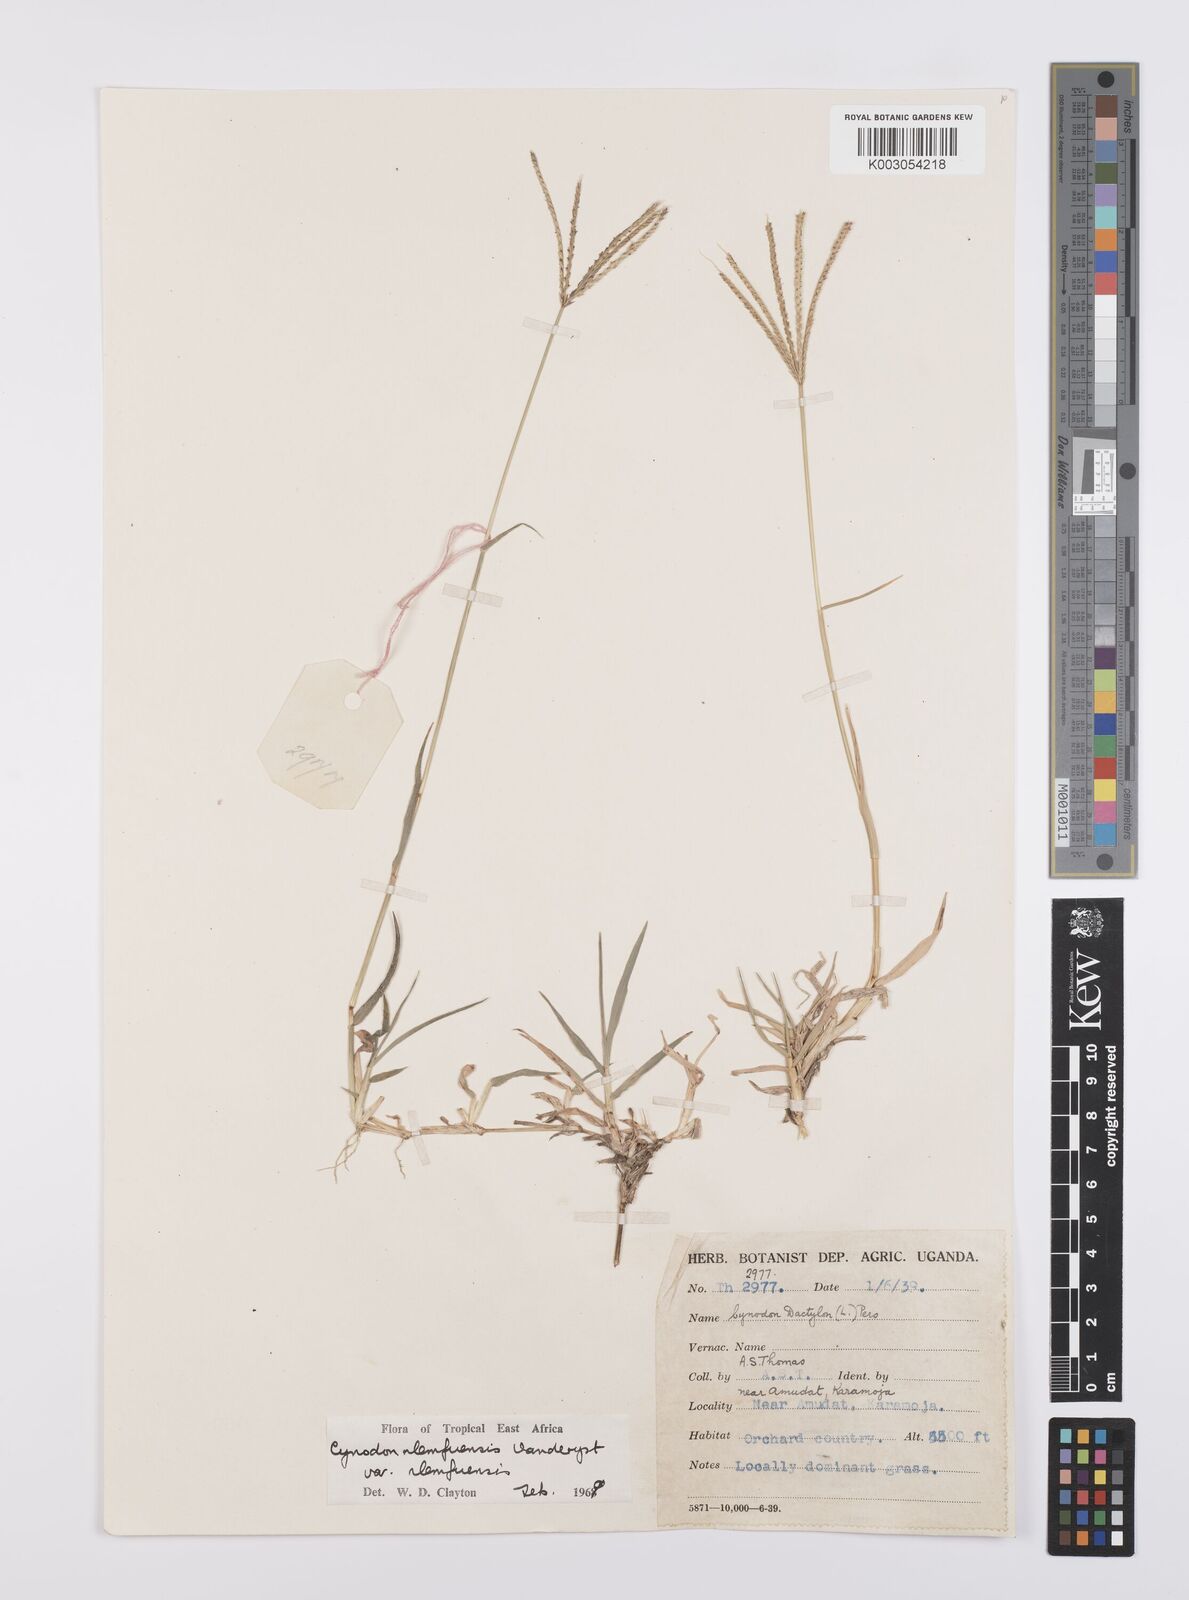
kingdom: Plantae
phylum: Tracheophyta
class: Liliopsida
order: Poales
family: Poaceae
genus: Cynodon
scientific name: Cynodon nlemfuensis
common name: African bermudagrass
